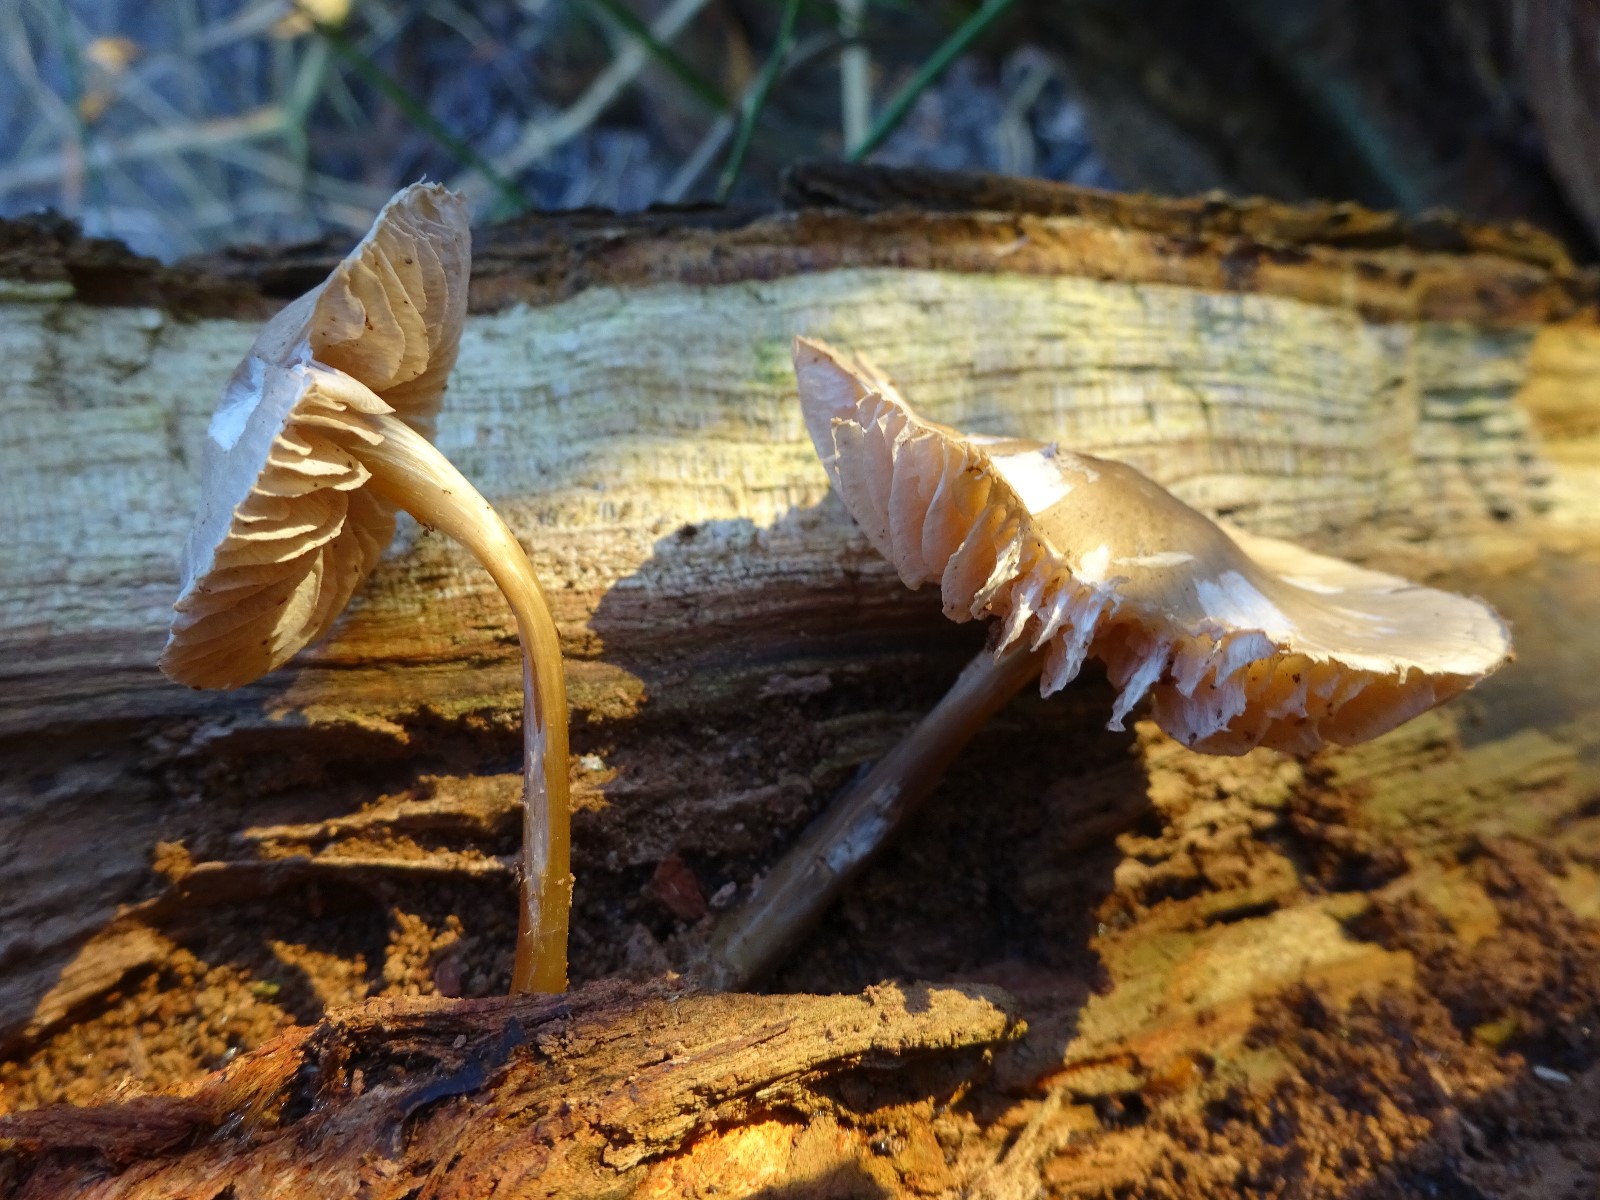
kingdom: Fungi
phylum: Basidiomycota
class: Agaricomycetes
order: Agaricales
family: Mycenaceae
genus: Mycena
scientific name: Mycena galericulata
